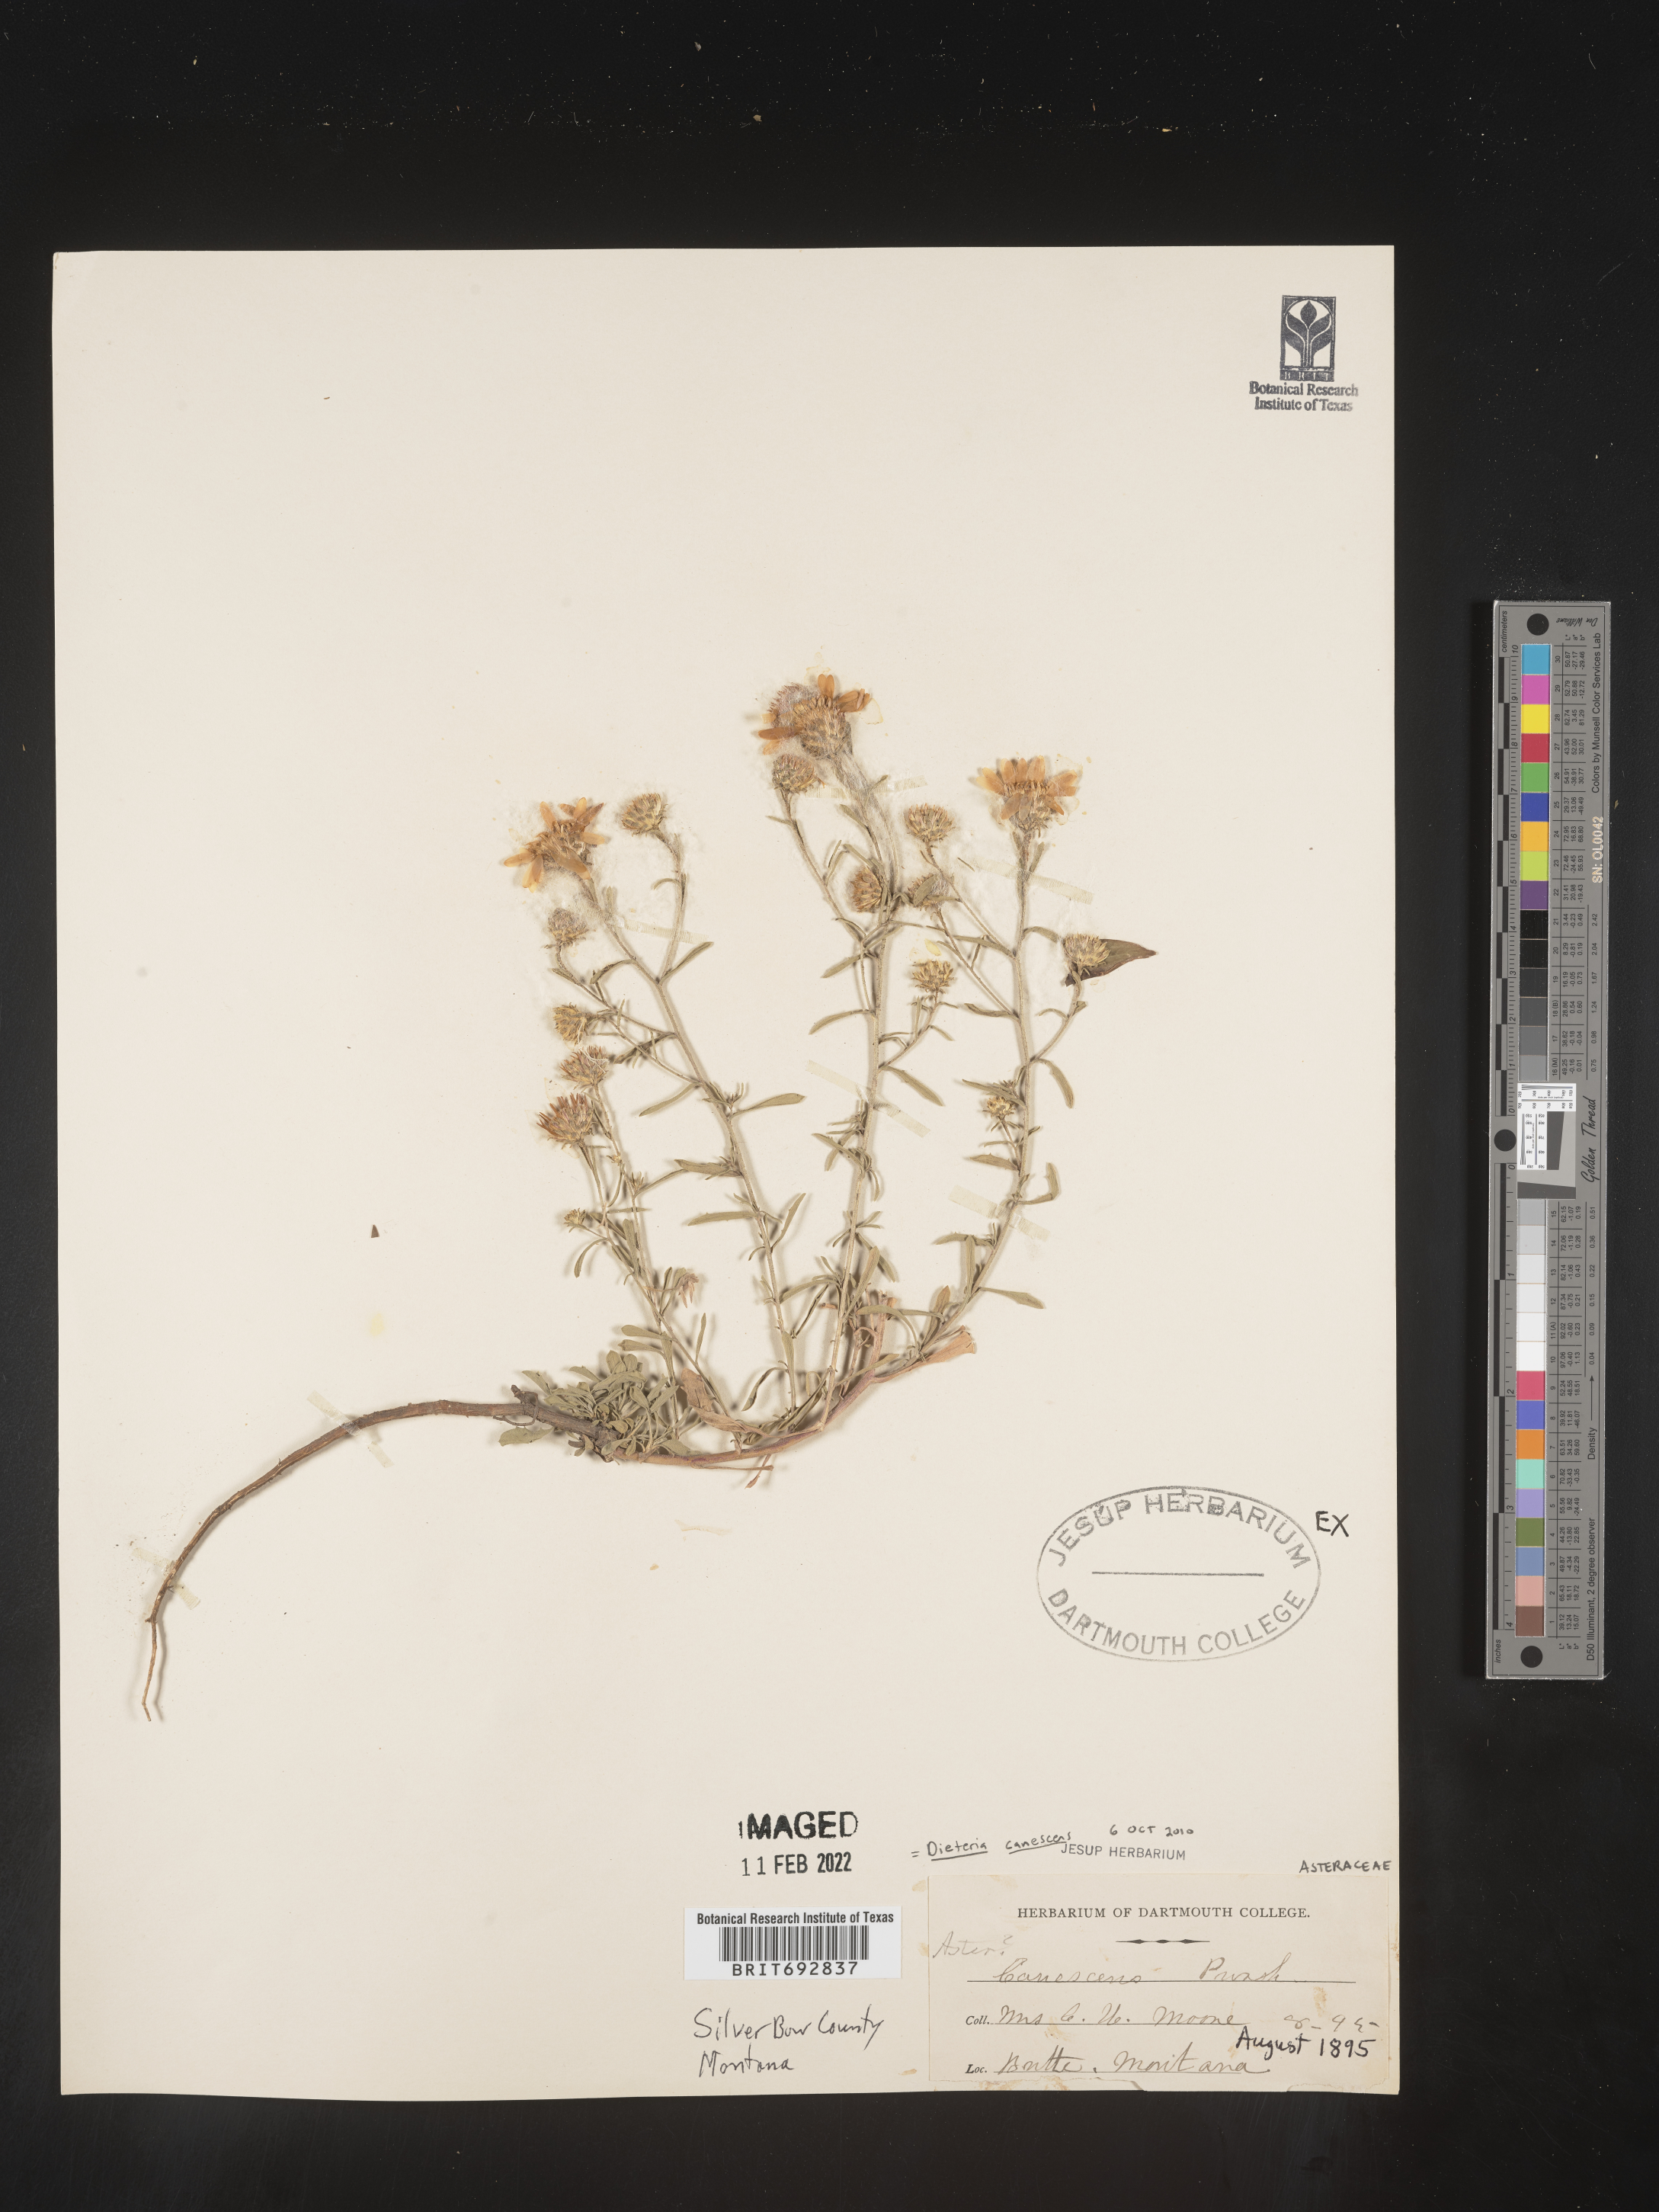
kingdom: Plantae
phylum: Tracheophyta
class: Magnoliopsida
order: Asterales
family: Asteraceae
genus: Dieteria
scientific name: Dieteria
